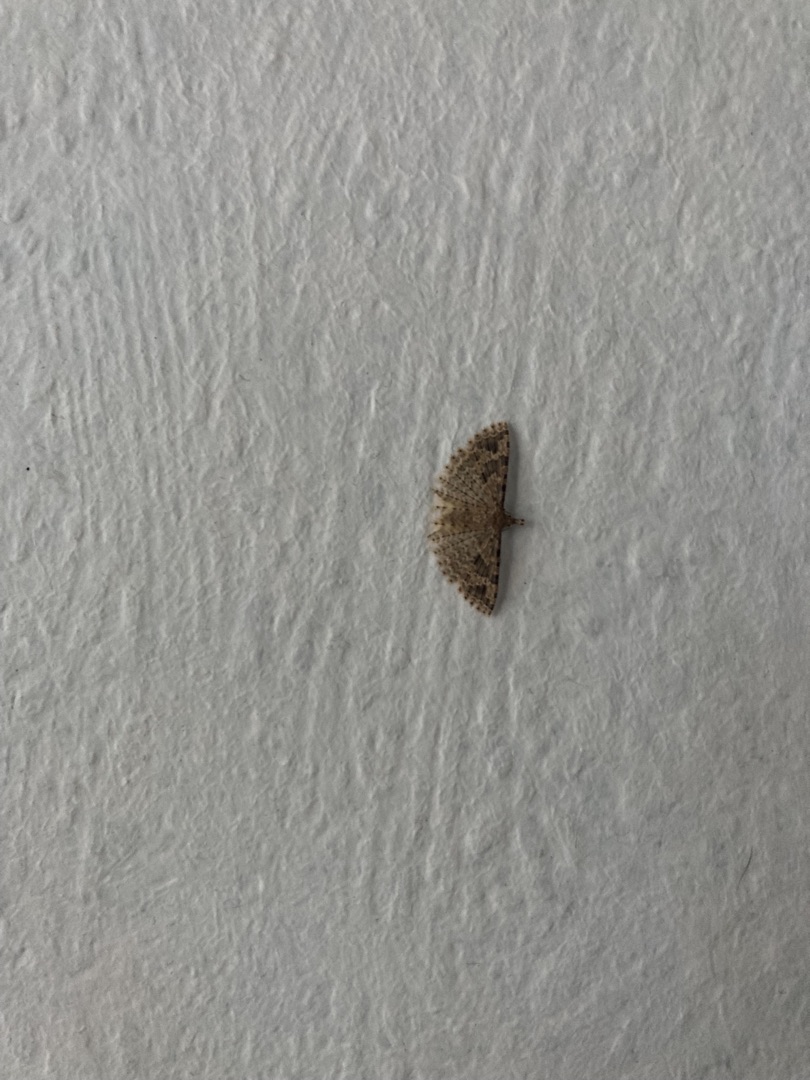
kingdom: Animalia
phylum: Arthropoda
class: Insecta
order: Lepidoptera
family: Alucitidae
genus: Alucita
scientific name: Alucita hexadactyla
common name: Kaprifoliefjermøl
